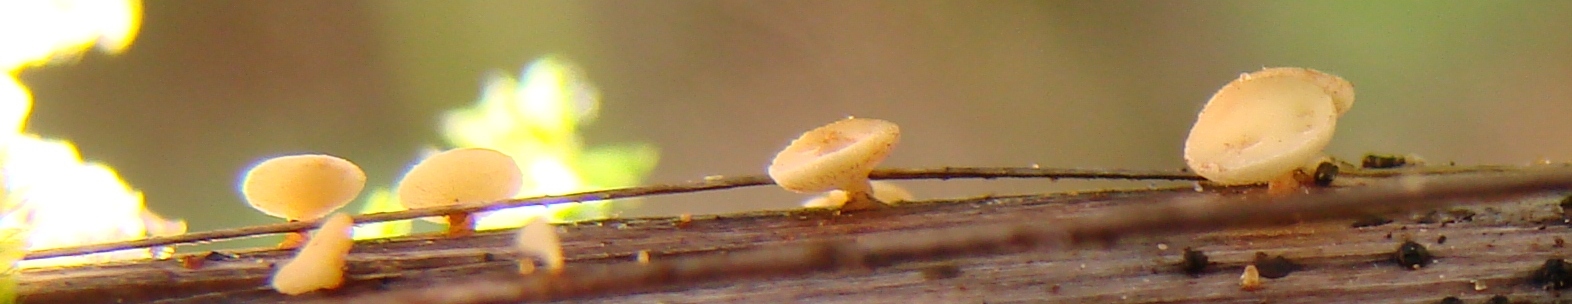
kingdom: Fungi
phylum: Ascomycota
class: Leotiomycetes
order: Helotiales
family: Helotiaceae
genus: Hymenoscyphus
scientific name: Hymenoscyphus scutula
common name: almindelig stilkskive
